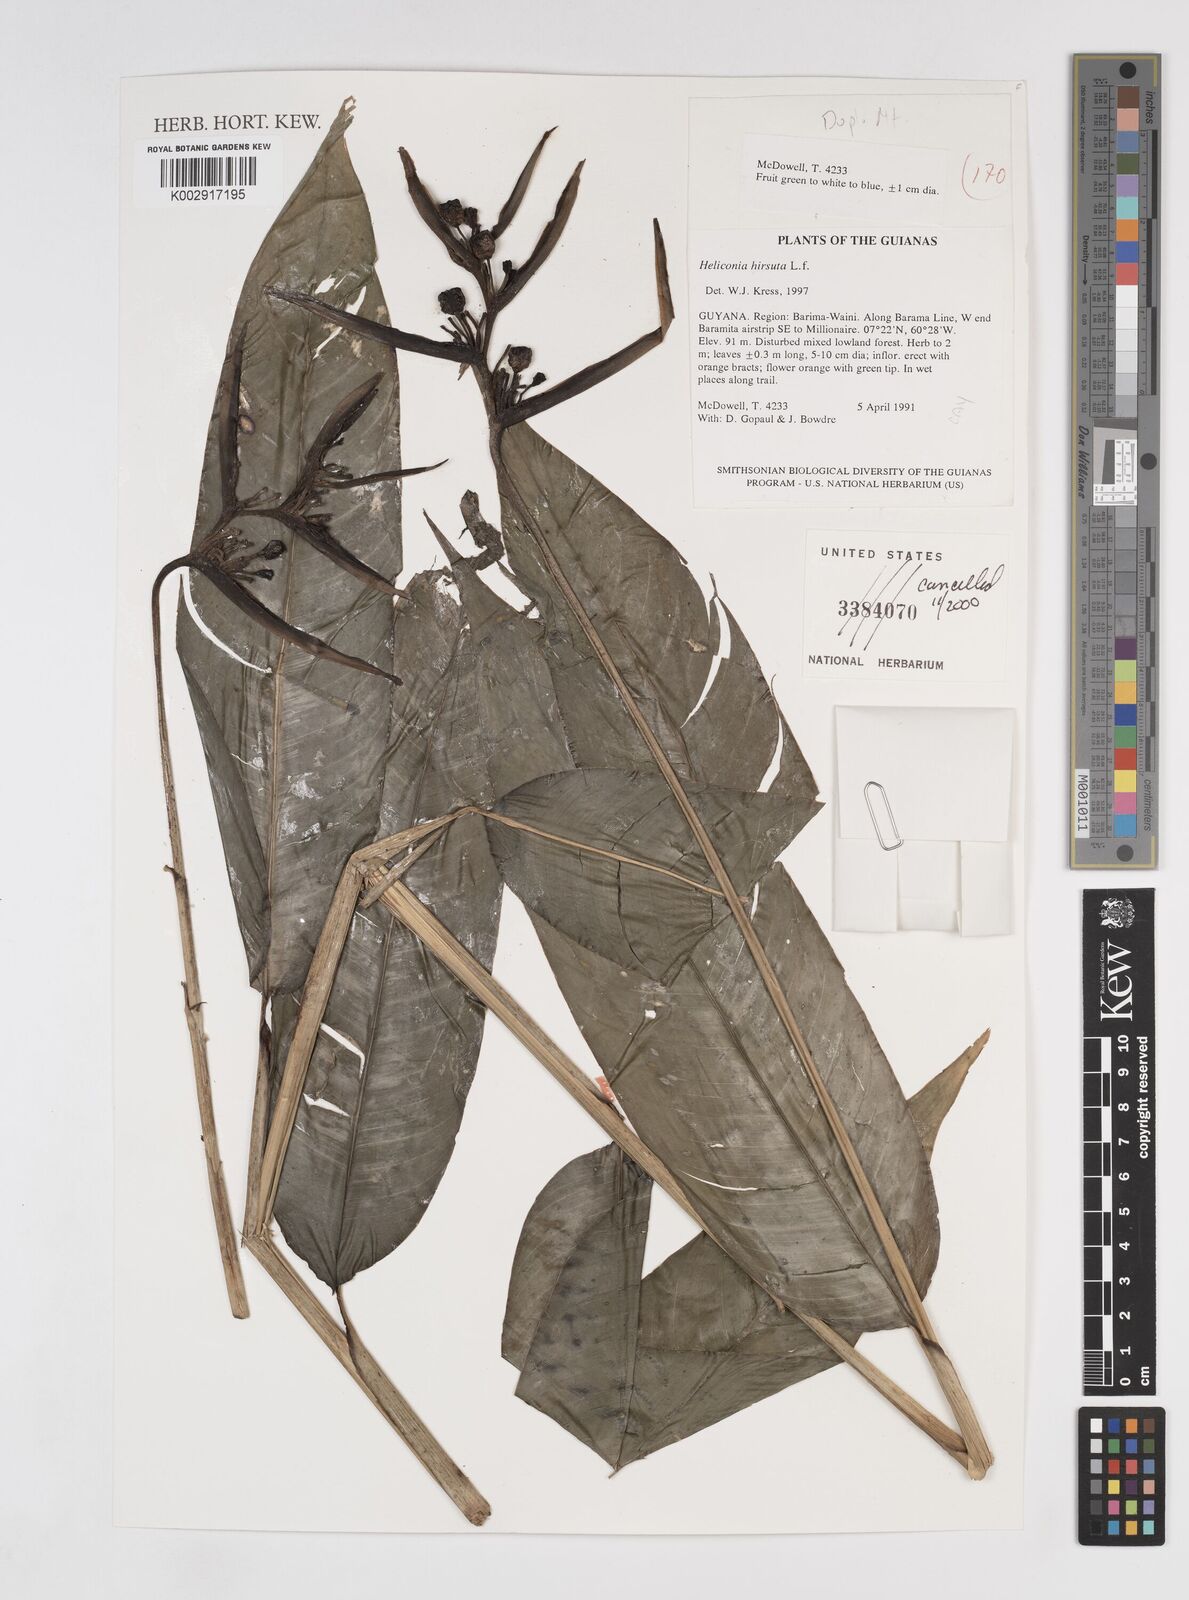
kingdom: Plantae
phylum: Tracheophyta
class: Liliopsida
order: Zingiberales
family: Heliconiaceae
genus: Heliconia
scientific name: Heliconia hirsuta
